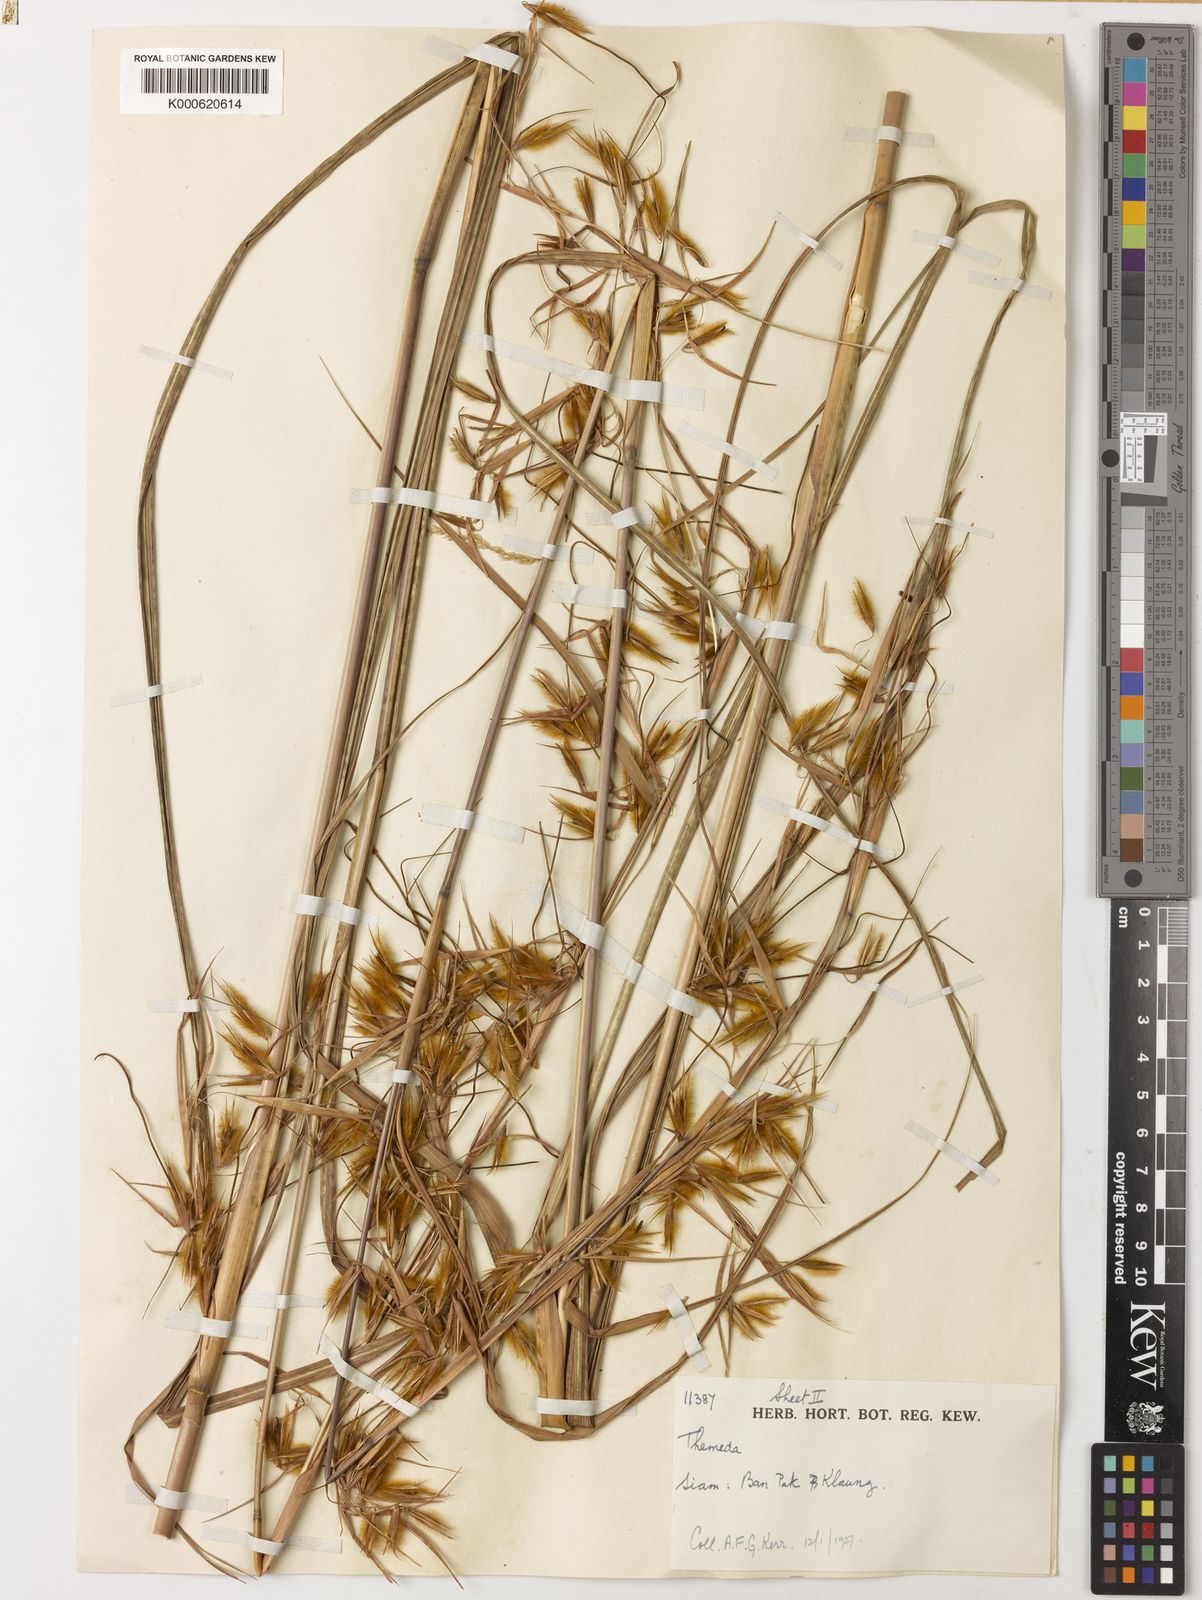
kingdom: Plantae
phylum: Tracheophyta
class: Liliopsida
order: Poales
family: Poaceae
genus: Themeda
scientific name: Themeda arundinacea
